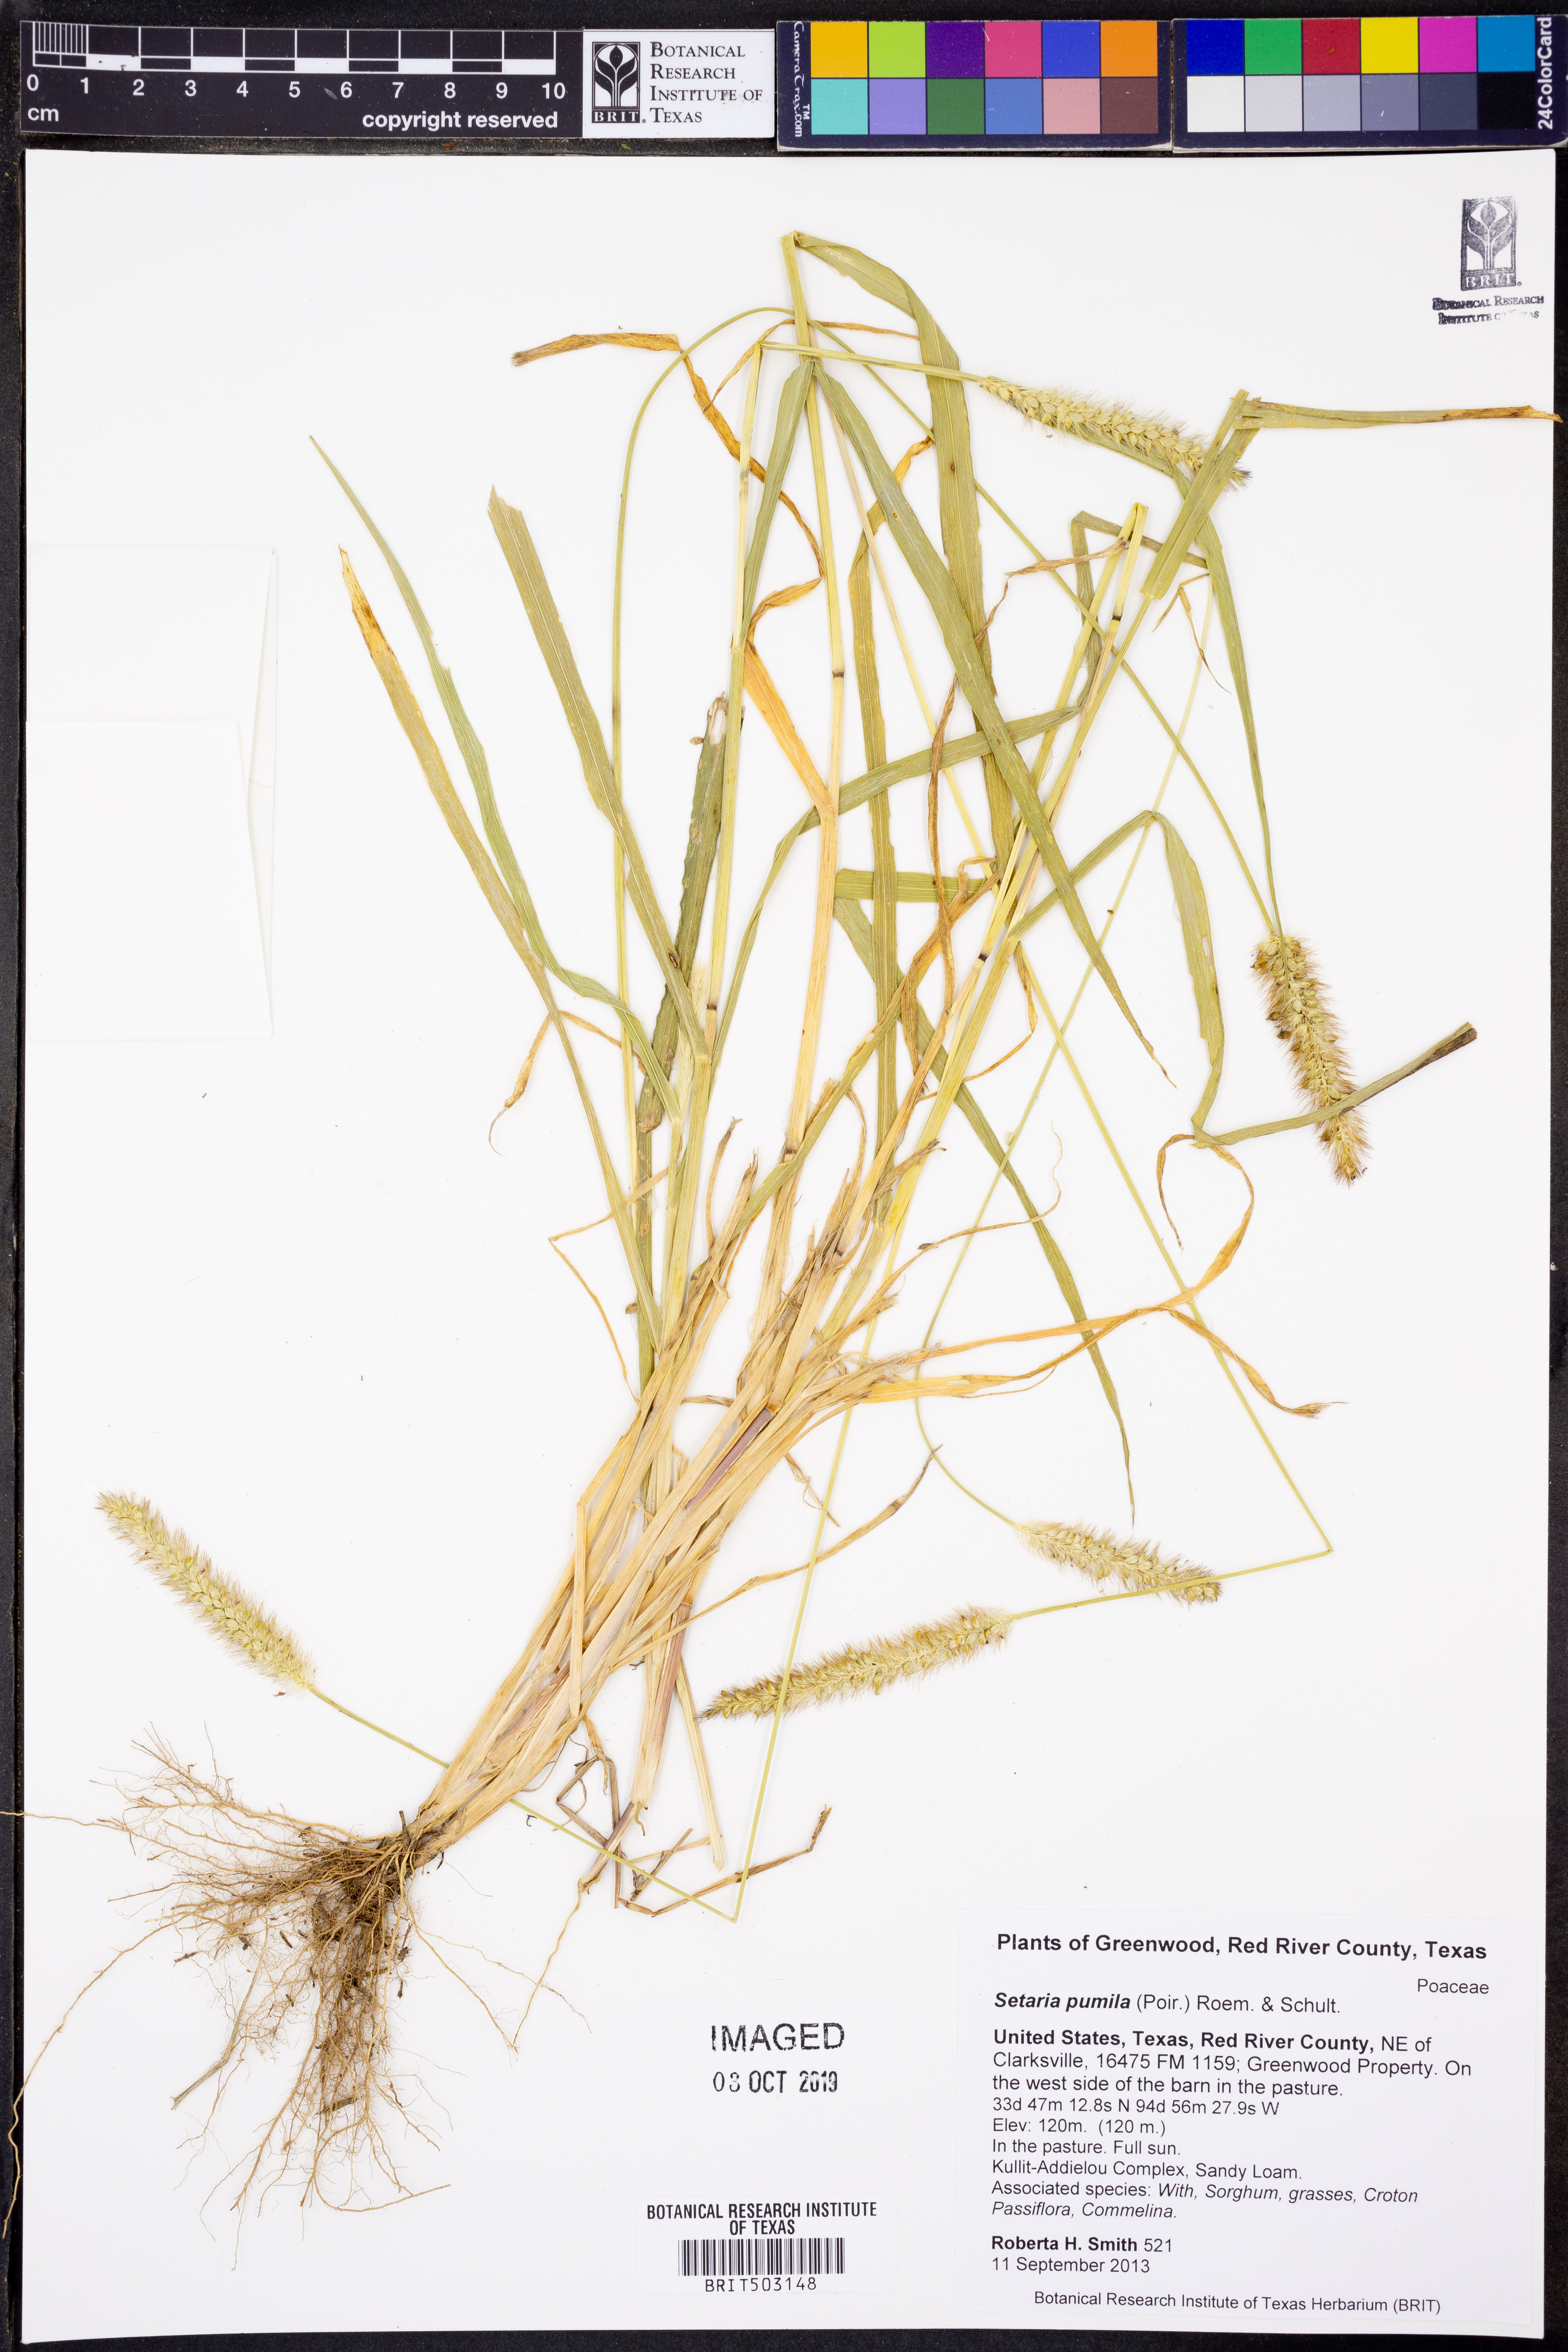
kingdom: Plantae
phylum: Tracheophyta
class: Liliopsida
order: Poales
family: Poaceae
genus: Setaria
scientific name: Setaria pumila
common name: Yellow bristle-grass
